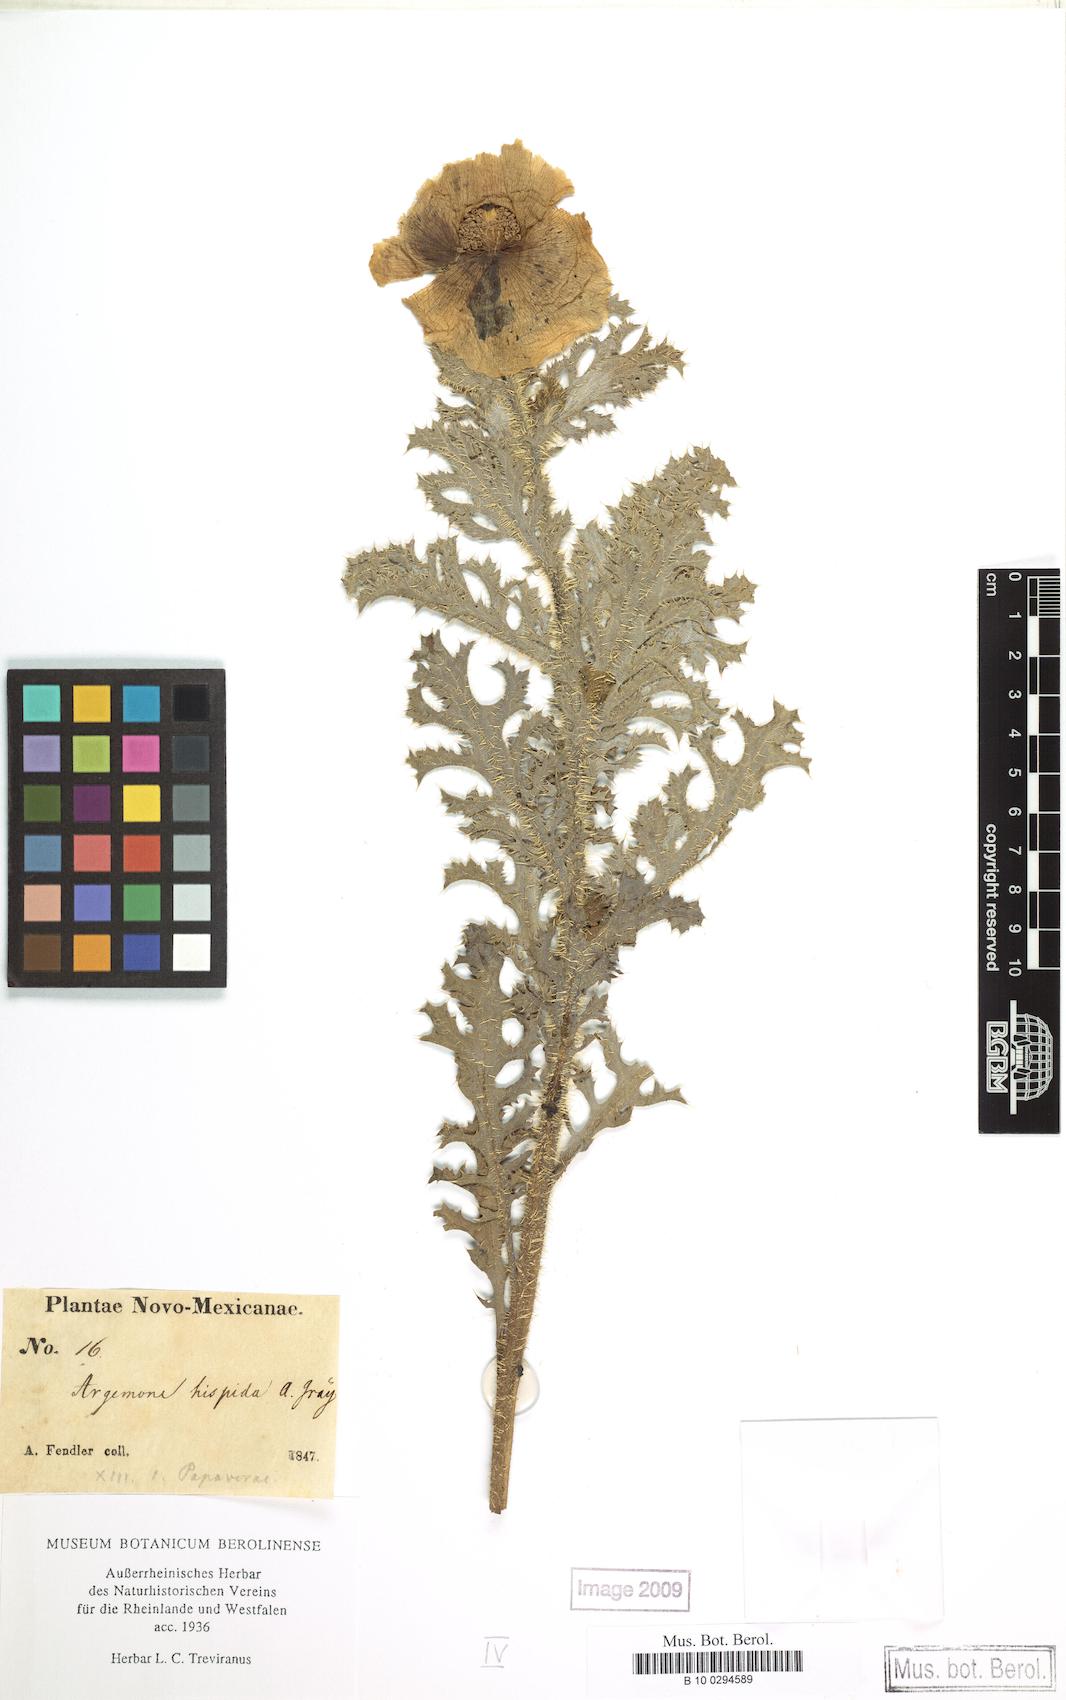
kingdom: Plantae
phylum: Tracheophyta
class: Magnoliopsida
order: Ranunculales
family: Papaveraceae
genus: Argemone
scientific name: Argemone hispida
